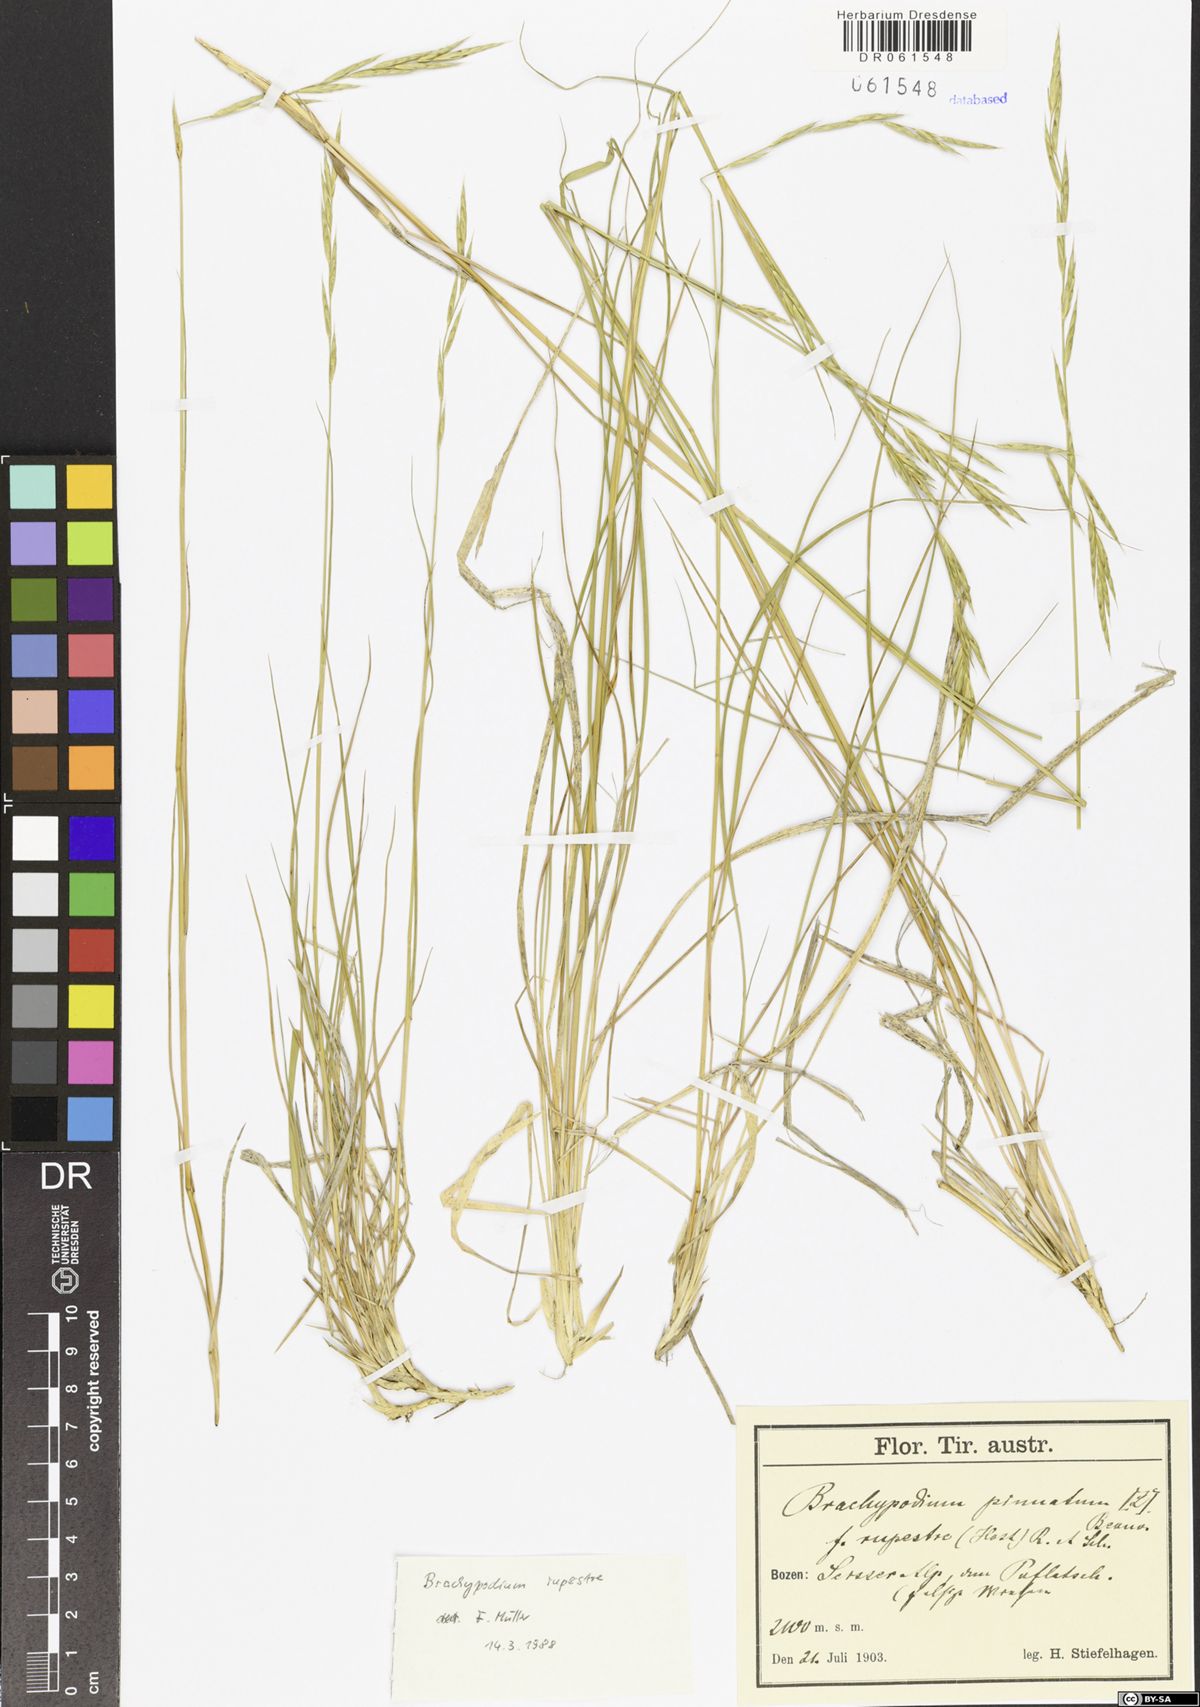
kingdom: Plantae
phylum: Tracheophyta
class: Liliopsida
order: Poales
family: Poaceae
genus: Brachypodium
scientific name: Brachypodium pinnatum
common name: Tor grass
